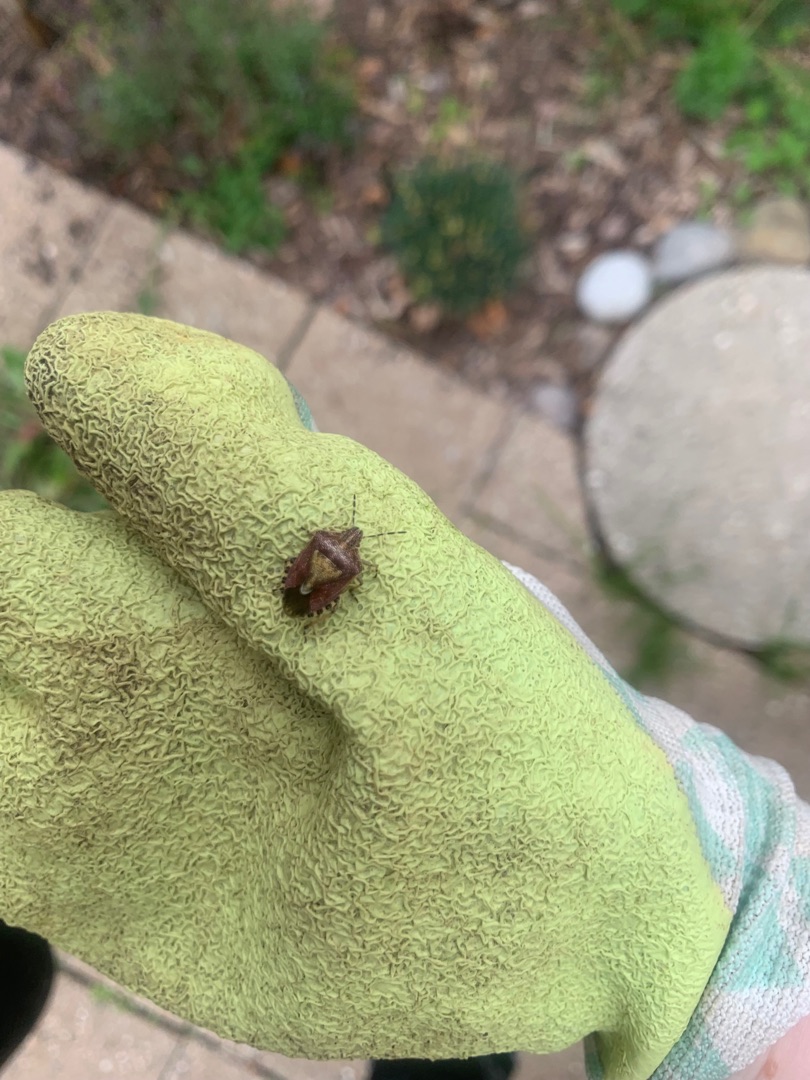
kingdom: Animalia
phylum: Arthropoda
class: Insecta
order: Hemiptera
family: Pentatomidae
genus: Dolycoris
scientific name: Dolycoris baccarum
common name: Almindelig bærtæge
